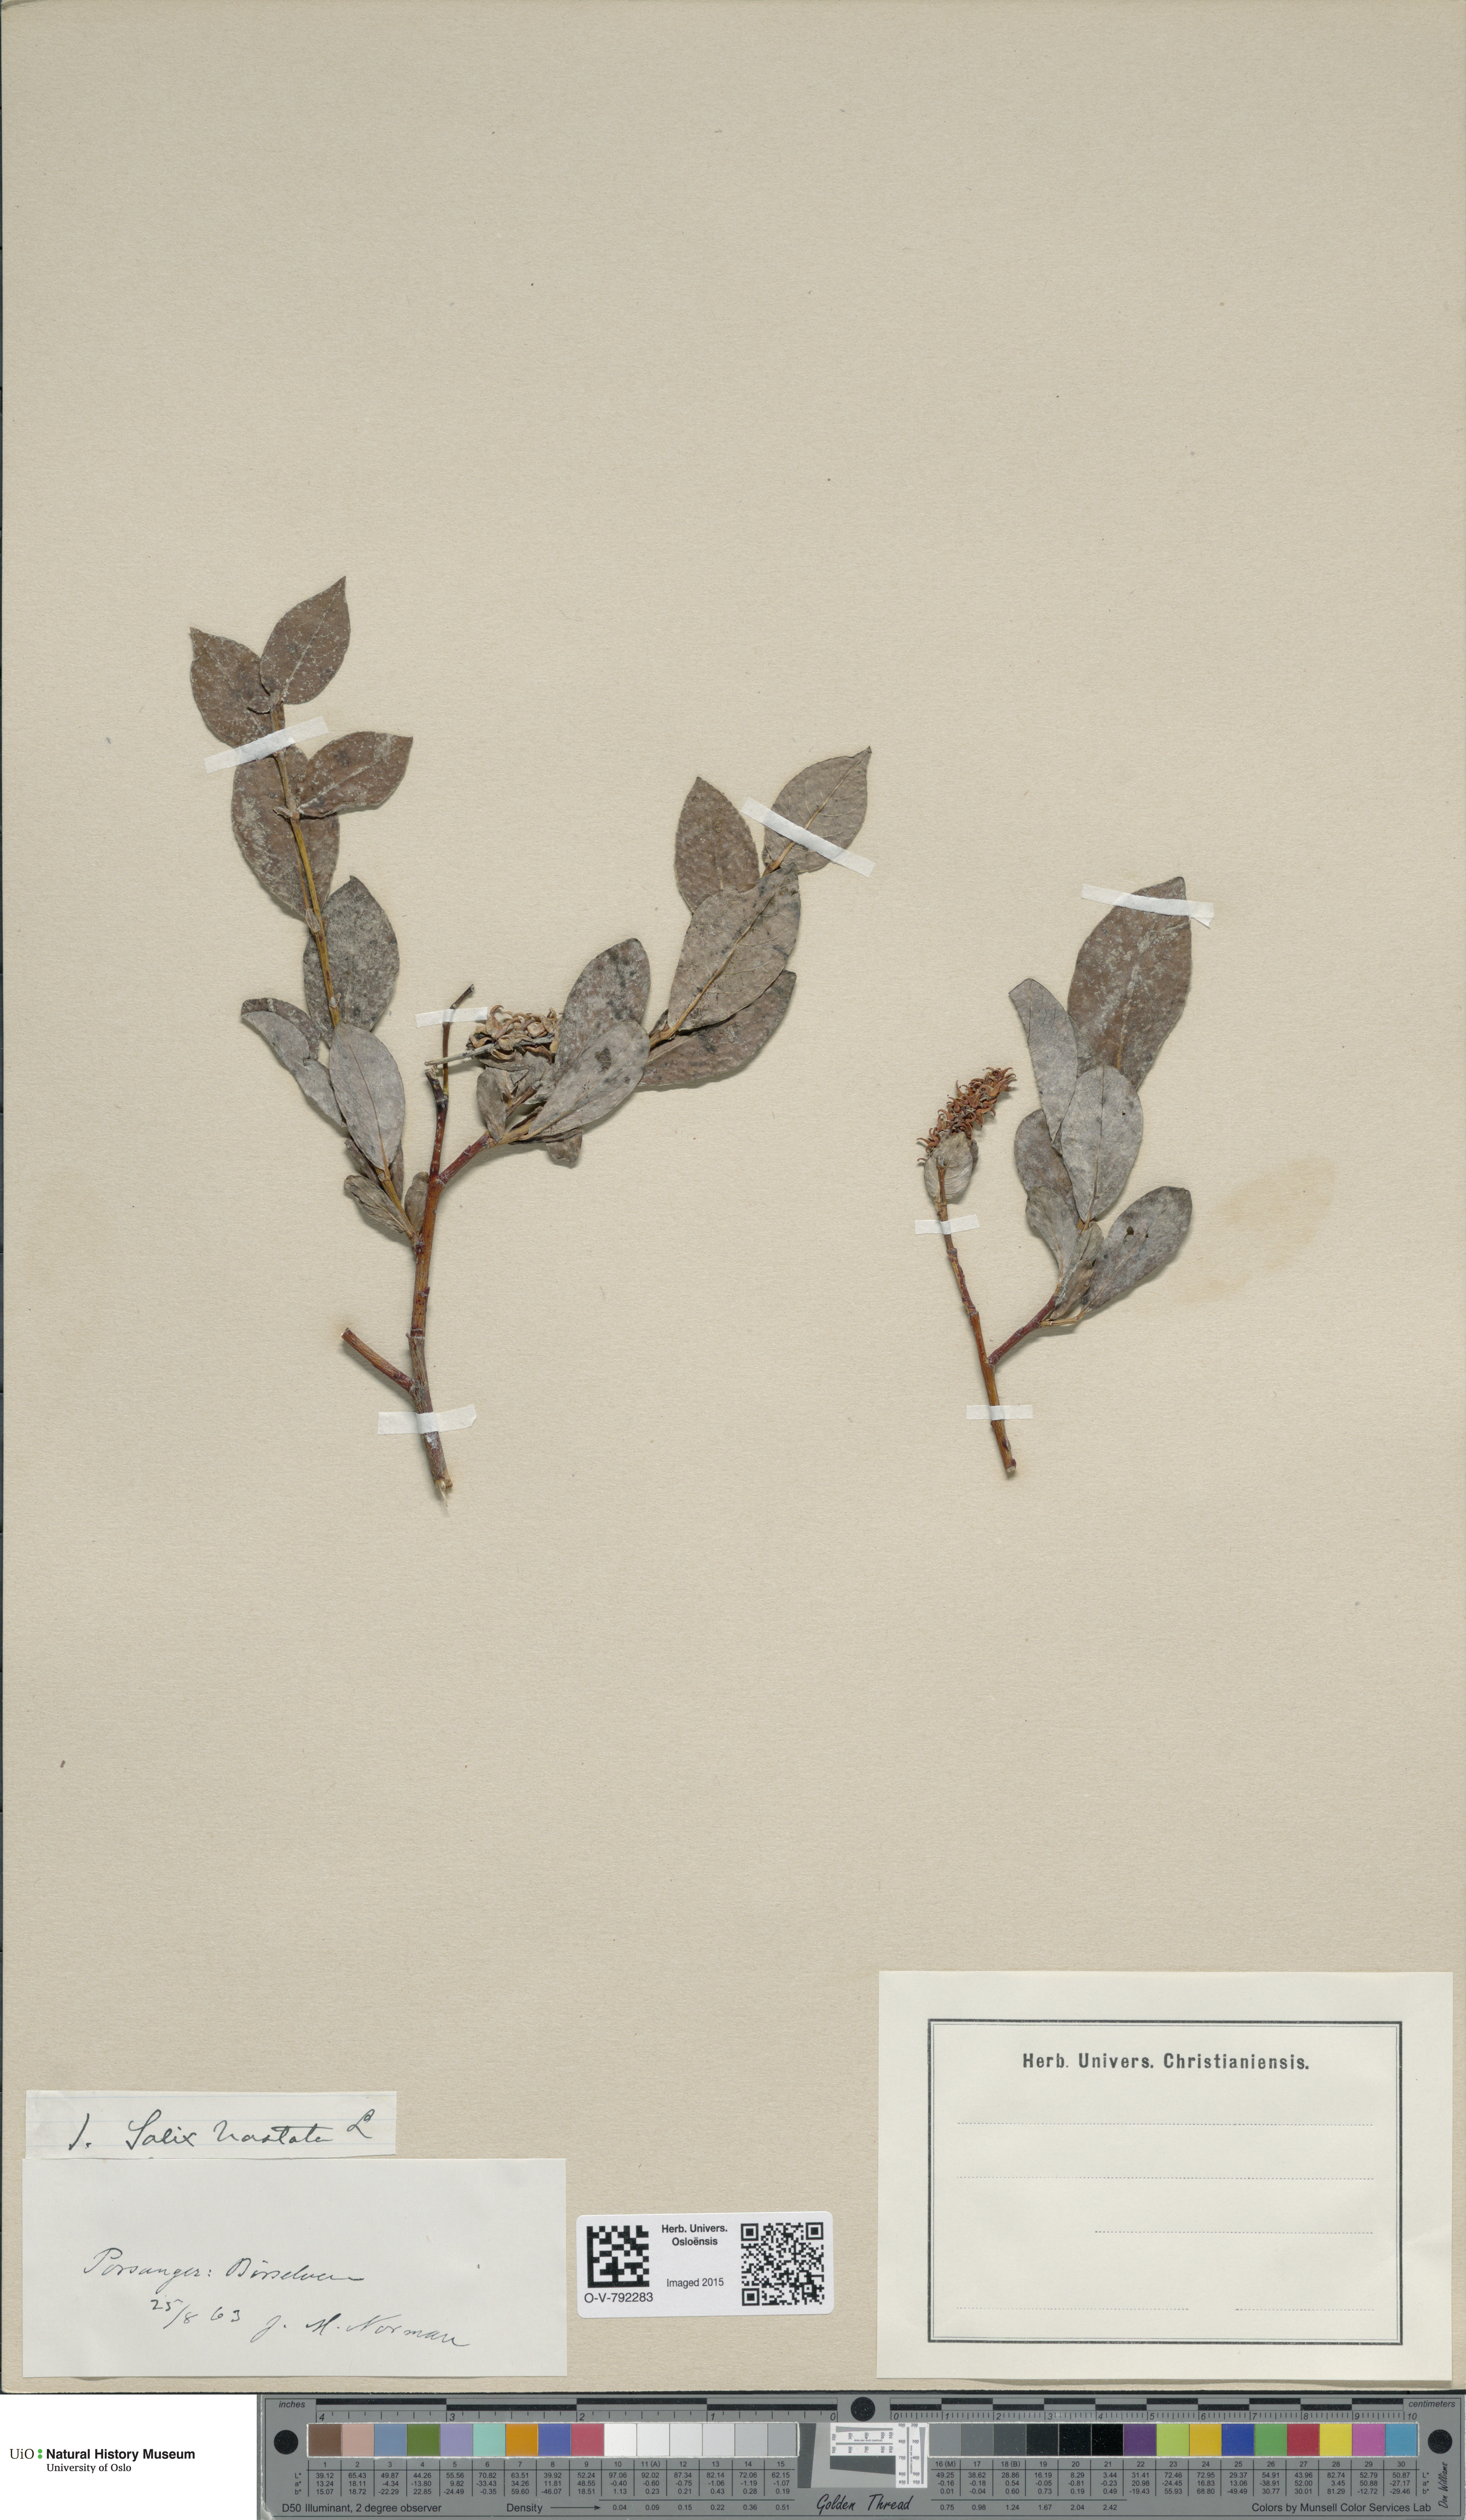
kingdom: Plantae
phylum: Tracheophyta
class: Magnoliopsida
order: Malpighiales
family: Salicaceae
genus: Salix
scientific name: Salix hastata
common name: Halberd willow
